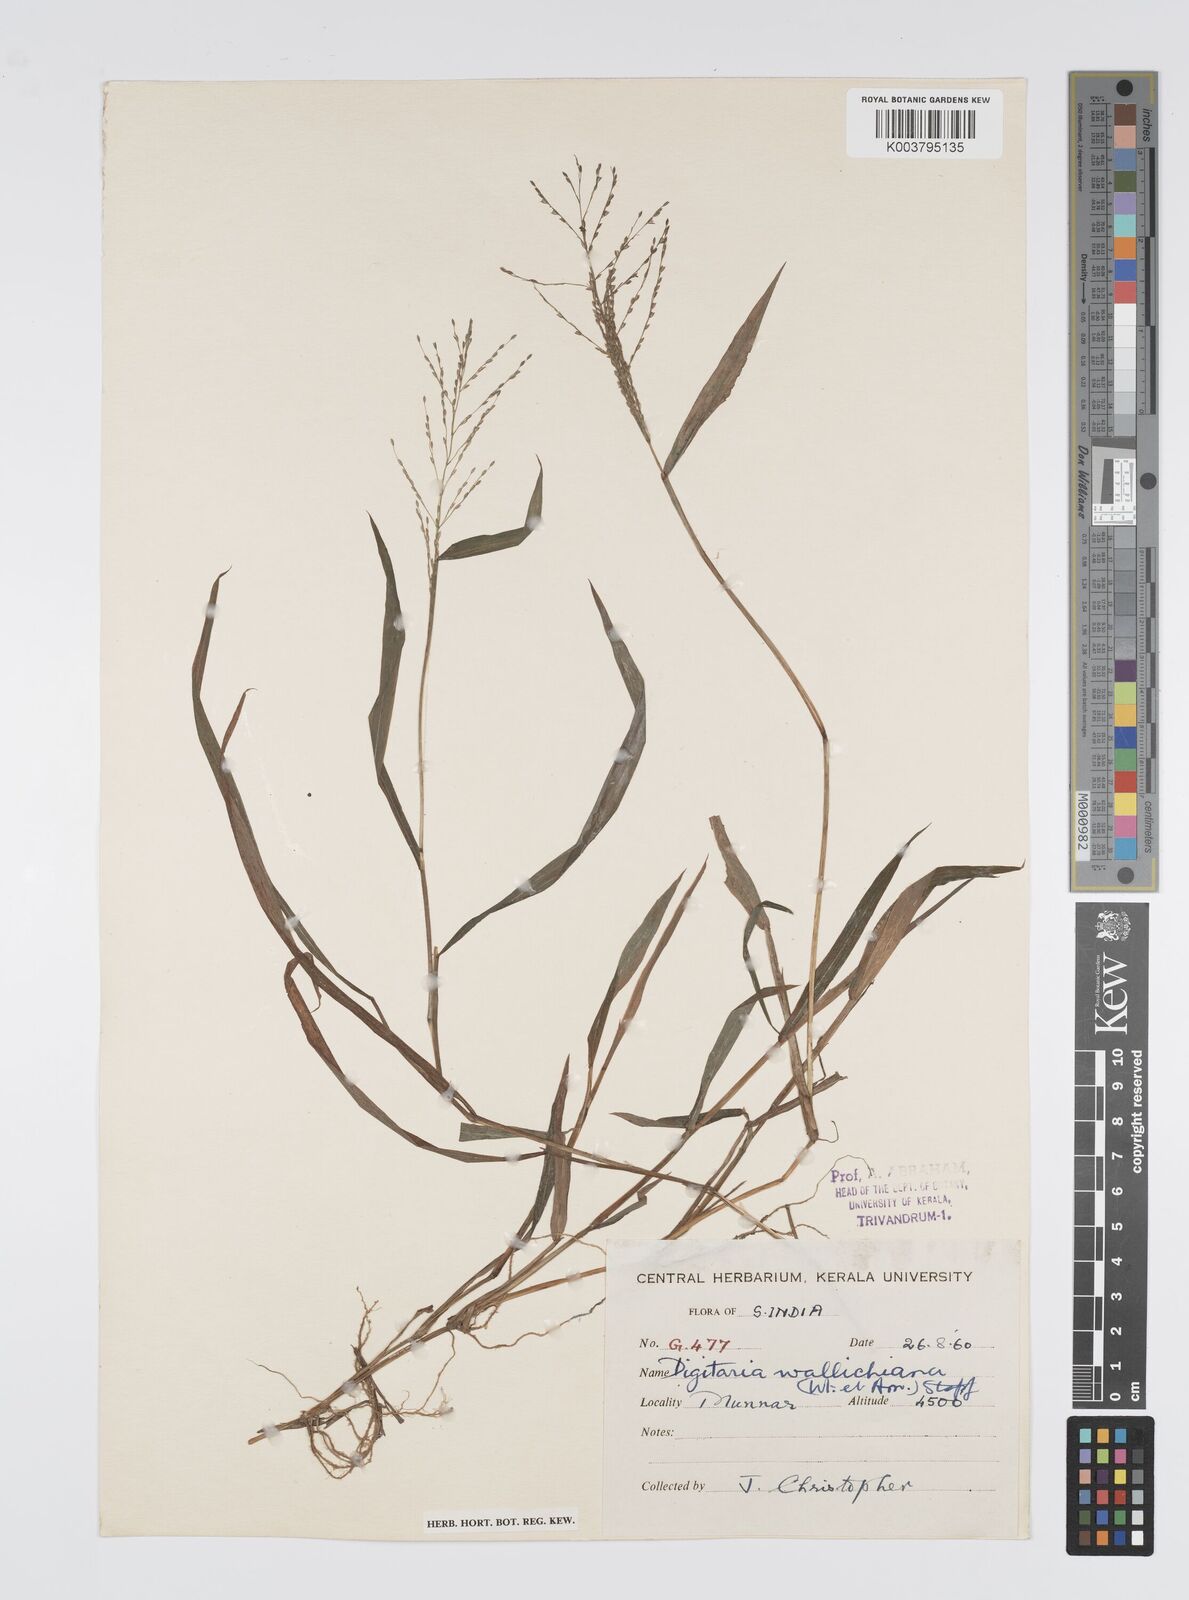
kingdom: Plantae
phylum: Tracheophyta
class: Liliopsida
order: Poales
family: Poaceae
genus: Digitaria
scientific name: Digitaria wallichiana
